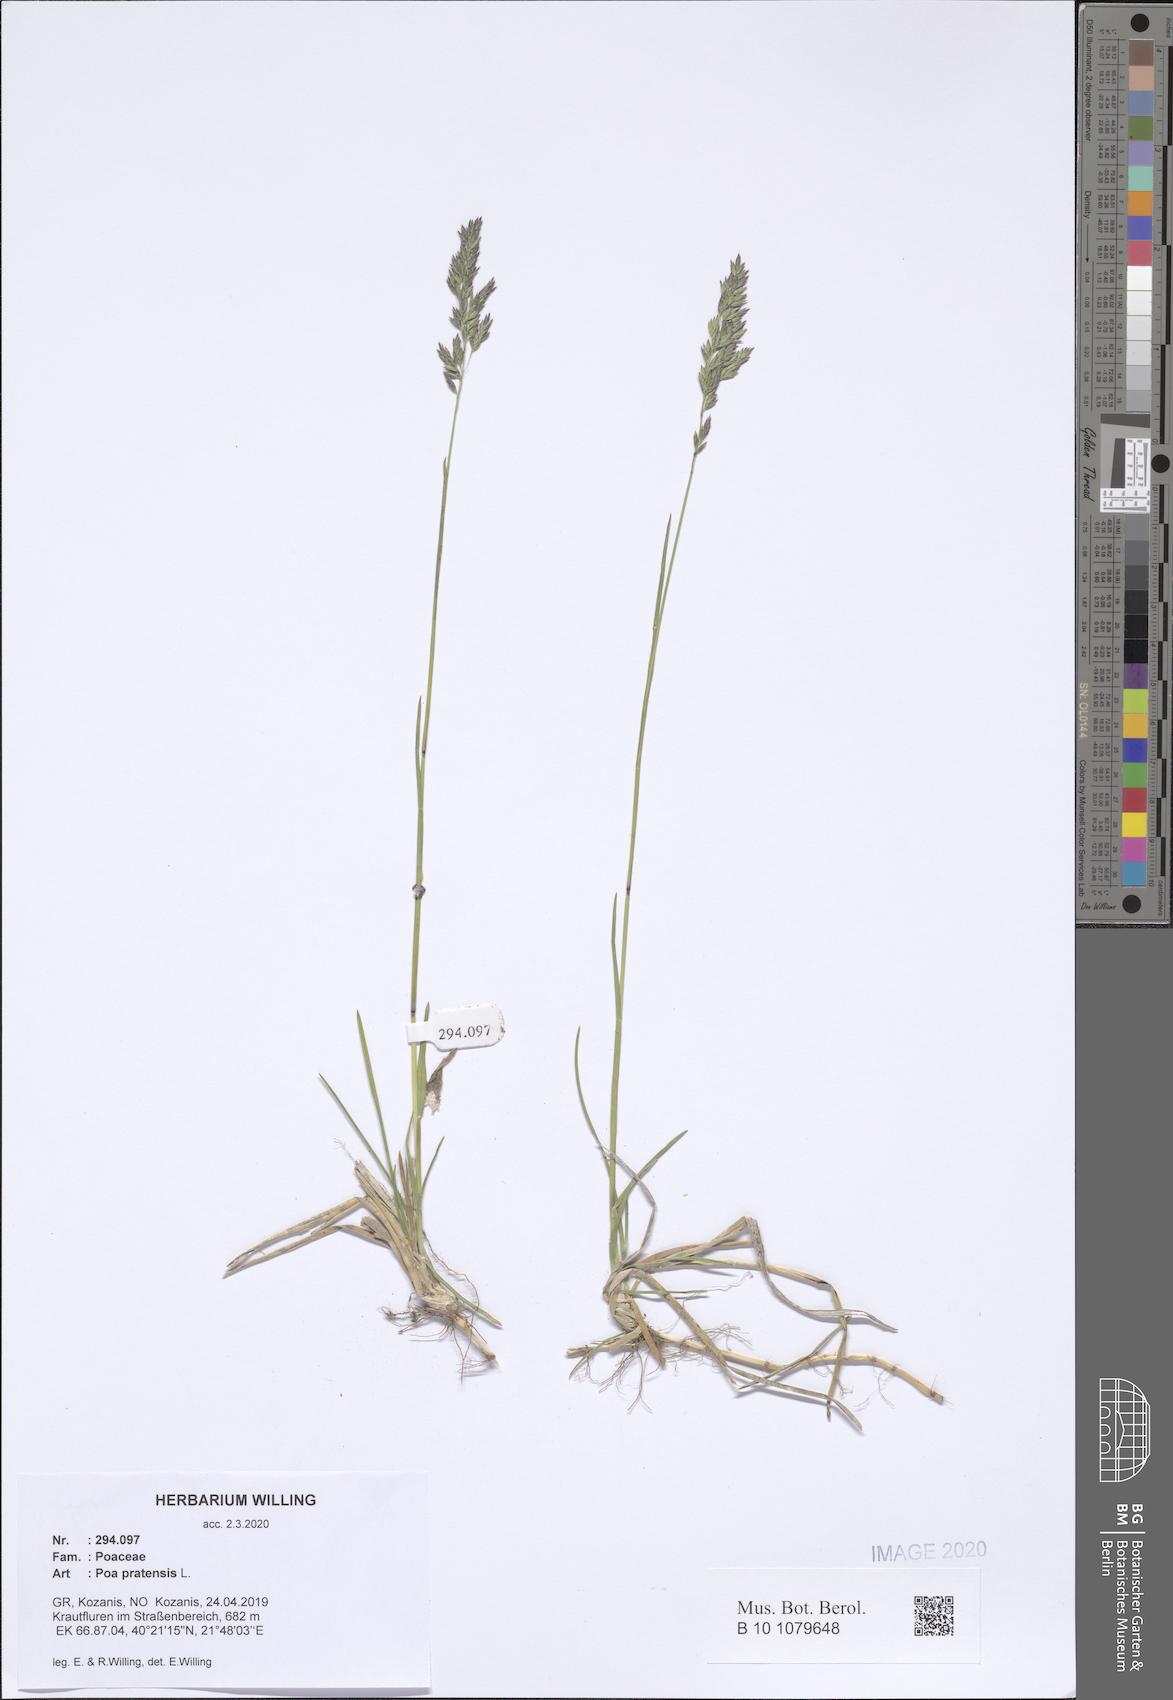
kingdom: Plantae
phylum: Tracheophyta
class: Liliopsida
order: Poales
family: Poaceae
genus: Poa
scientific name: Poa pratensis
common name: Kentucky bluegrass
